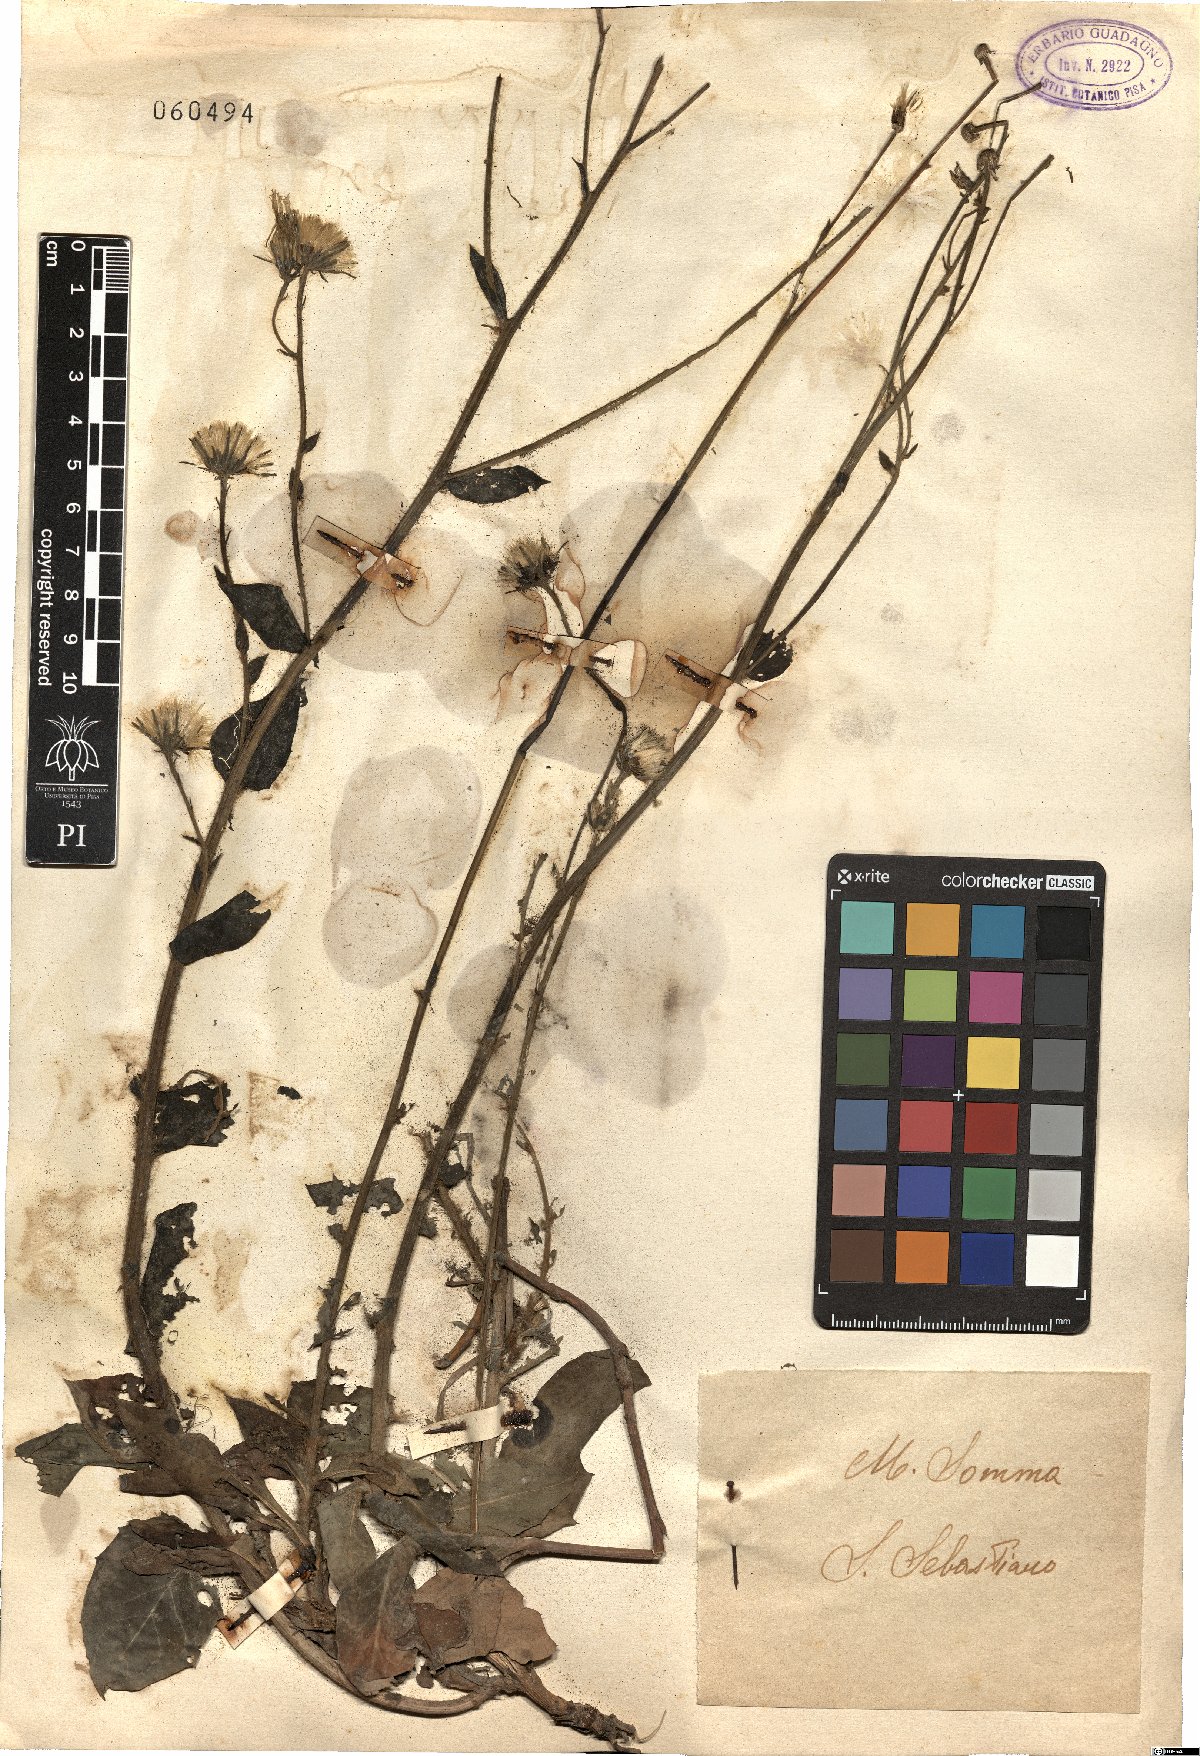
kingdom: Plantae
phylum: Tracheophyta
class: Magnoliopsida
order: Asterales
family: Asteraceae
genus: Hieracium
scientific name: Hieracium
